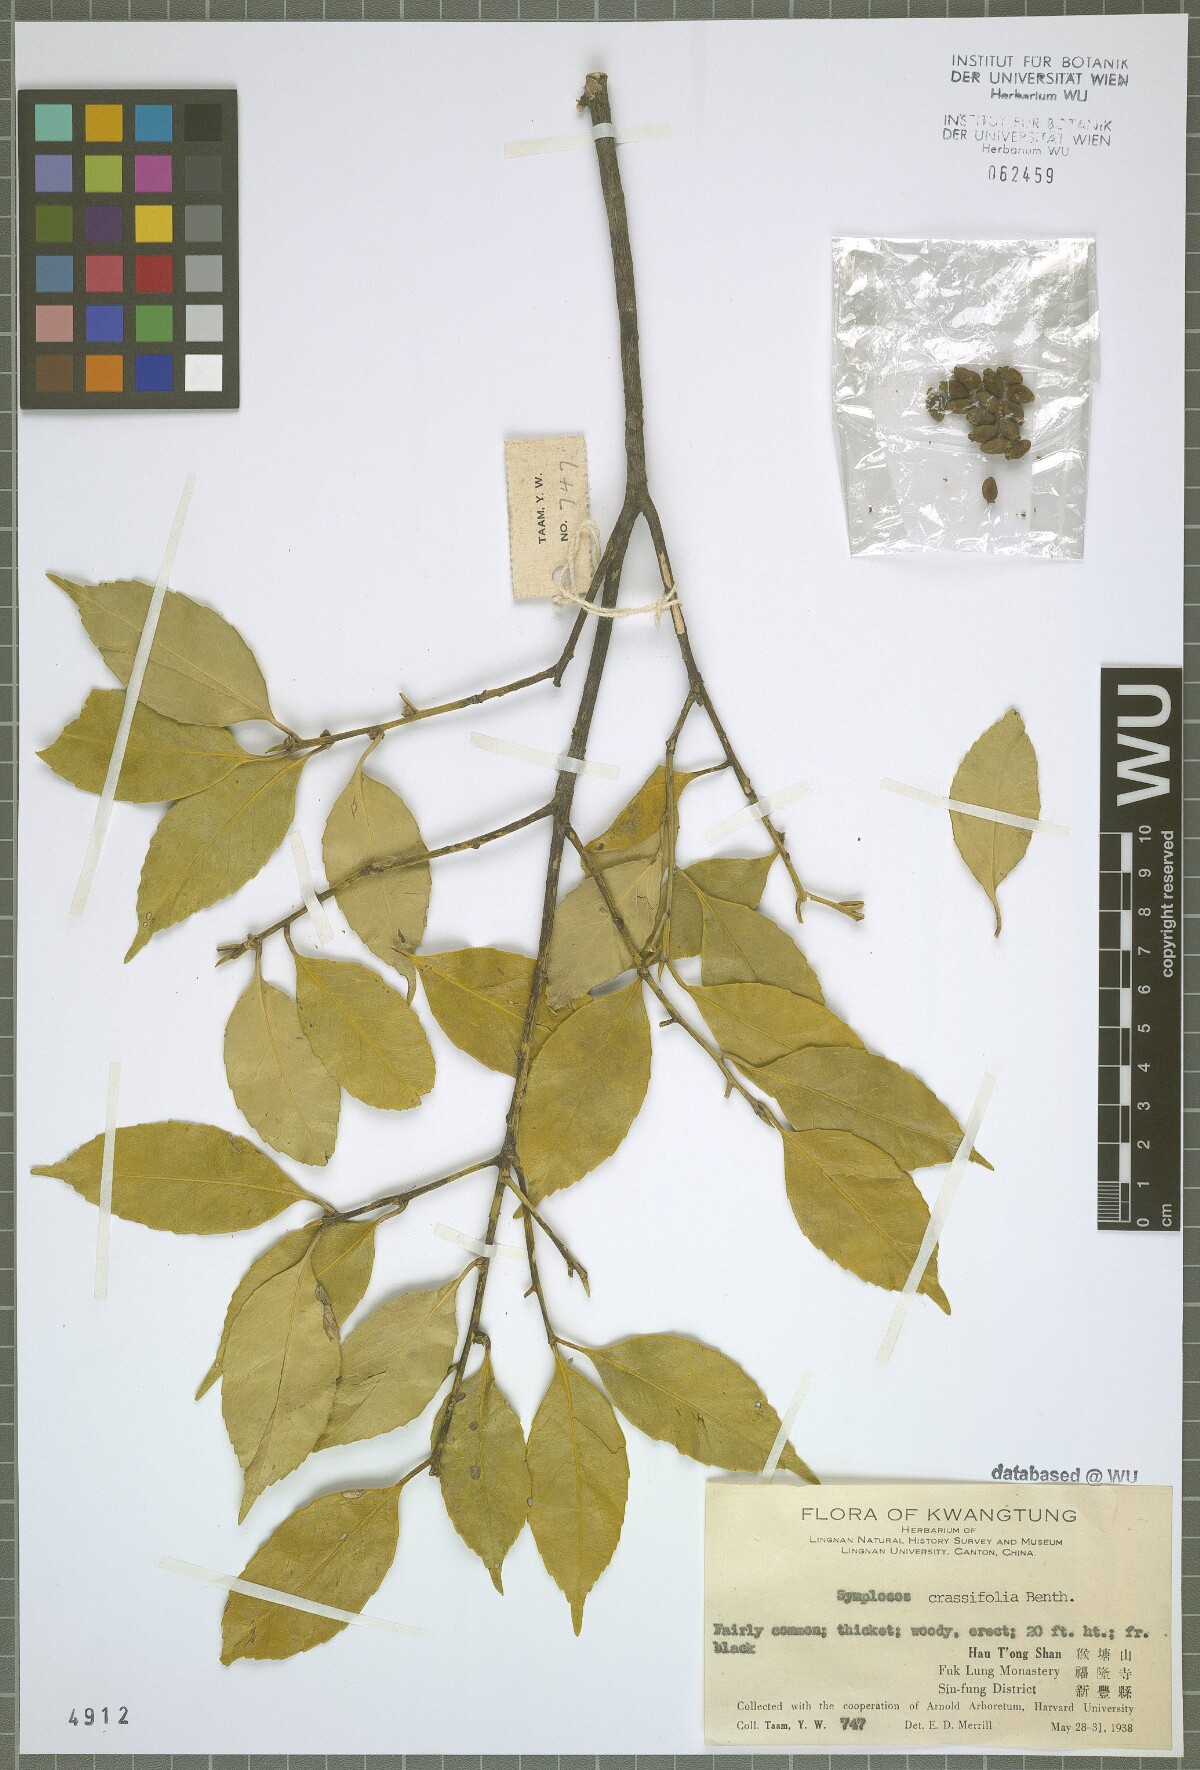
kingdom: Plantae
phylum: Tracheophyta
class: Magnoliopsida
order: Ericales
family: Symplocaceae
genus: Symplocos
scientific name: Symplocos nakaharae
